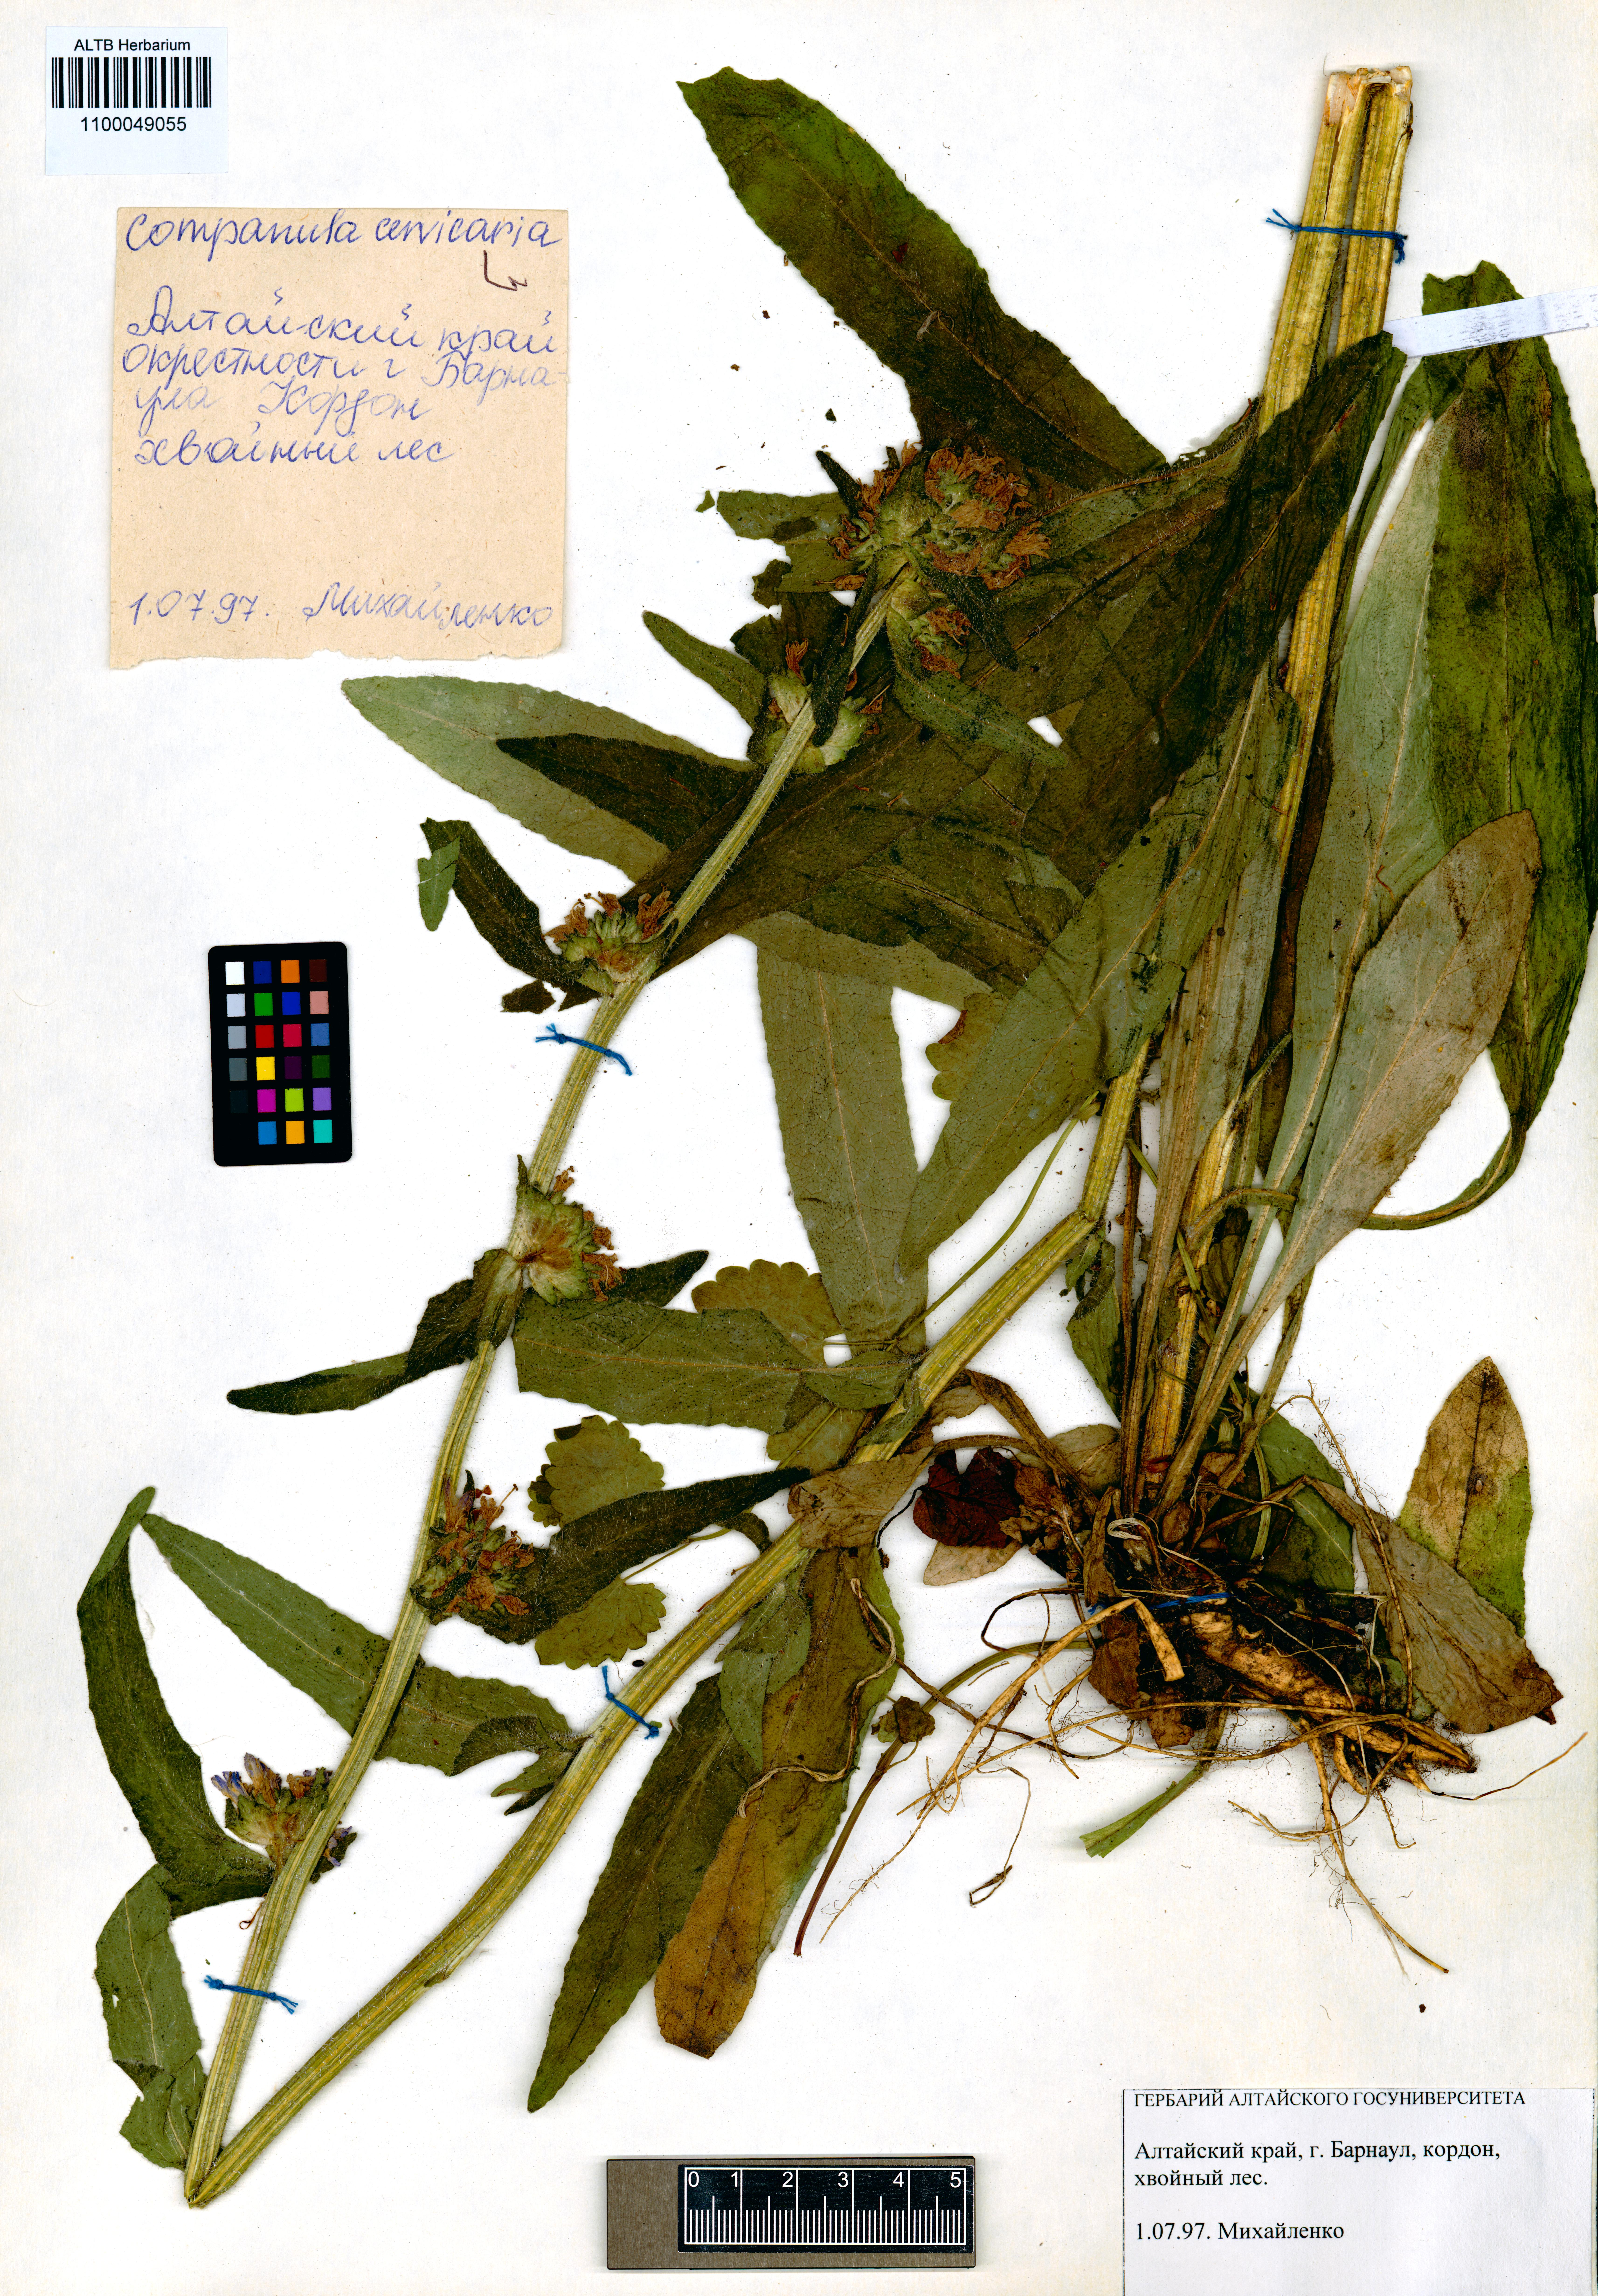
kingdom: Plantae
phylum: Tracheophyta
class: Magnoliopsida
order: Asterales
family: Campanulaceae
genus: Campanula
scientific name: Campanula cervicaria
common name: Bristly bellflower
